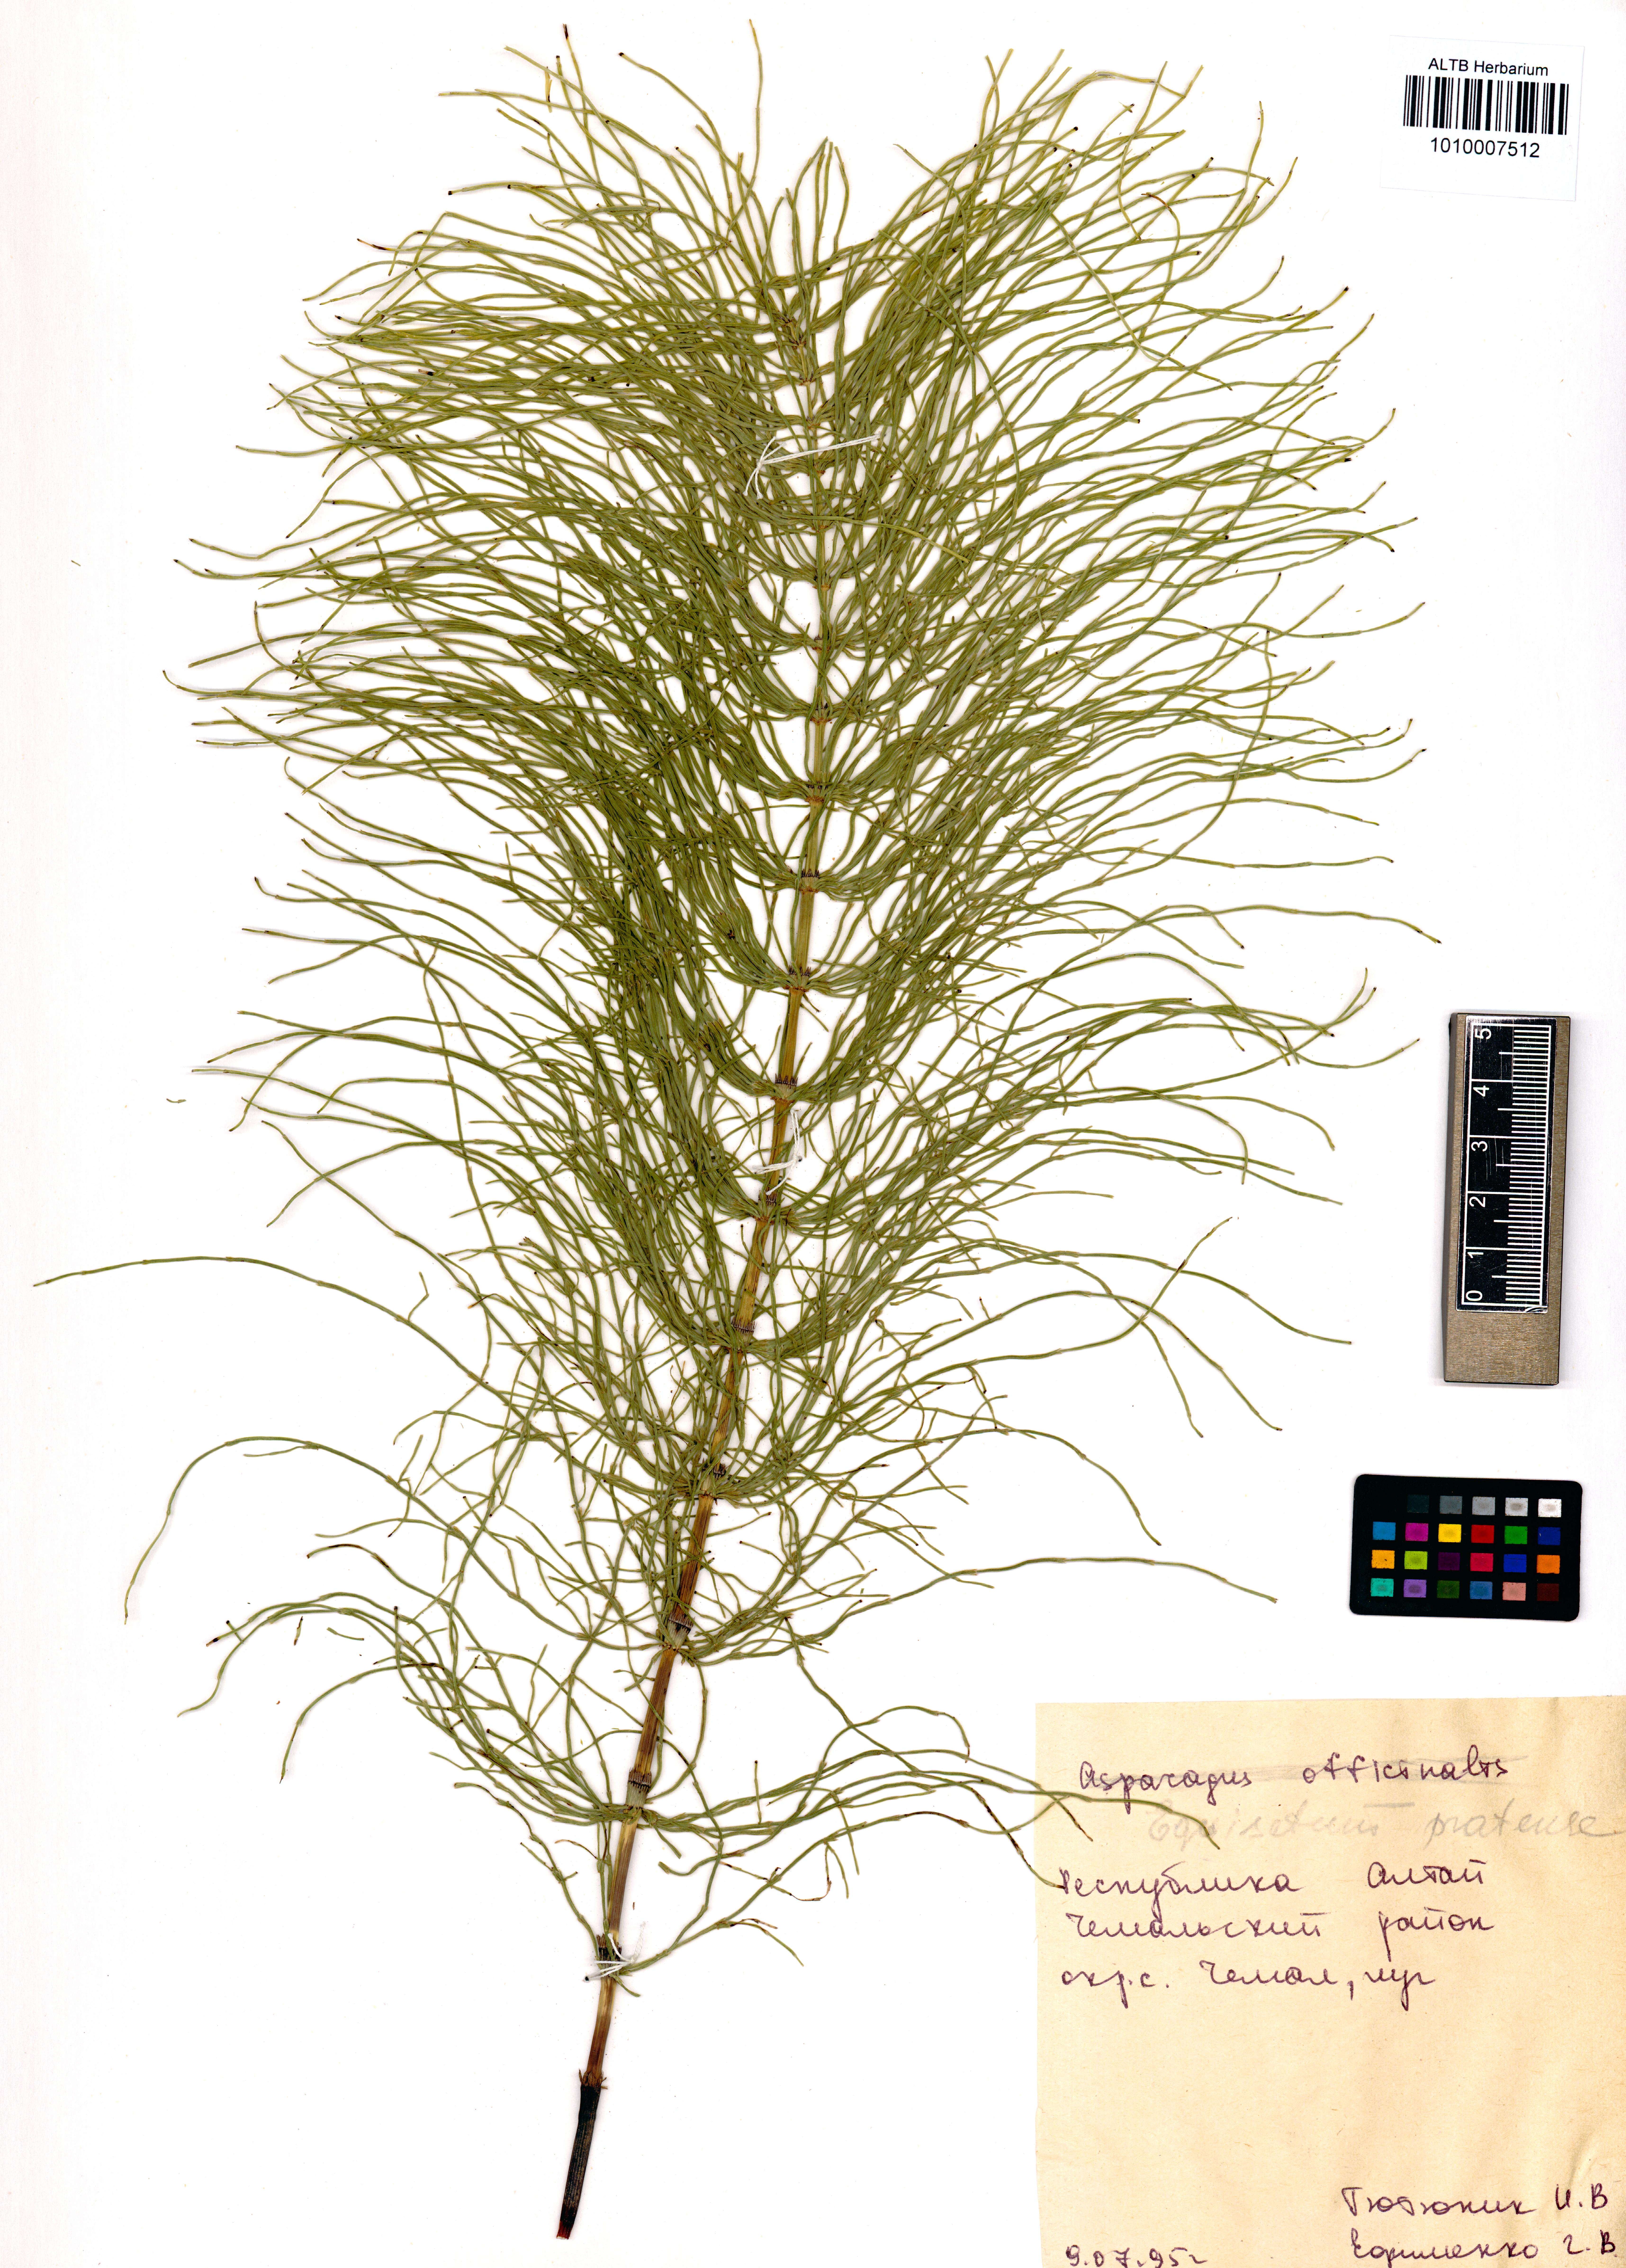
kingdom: Plantae
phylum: Tracheophyta
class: Polypodiopsida
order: Equisetales
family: Equisetaceae
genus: Equisetum
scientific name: Equisetum pratense
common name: Meadow horsetail
